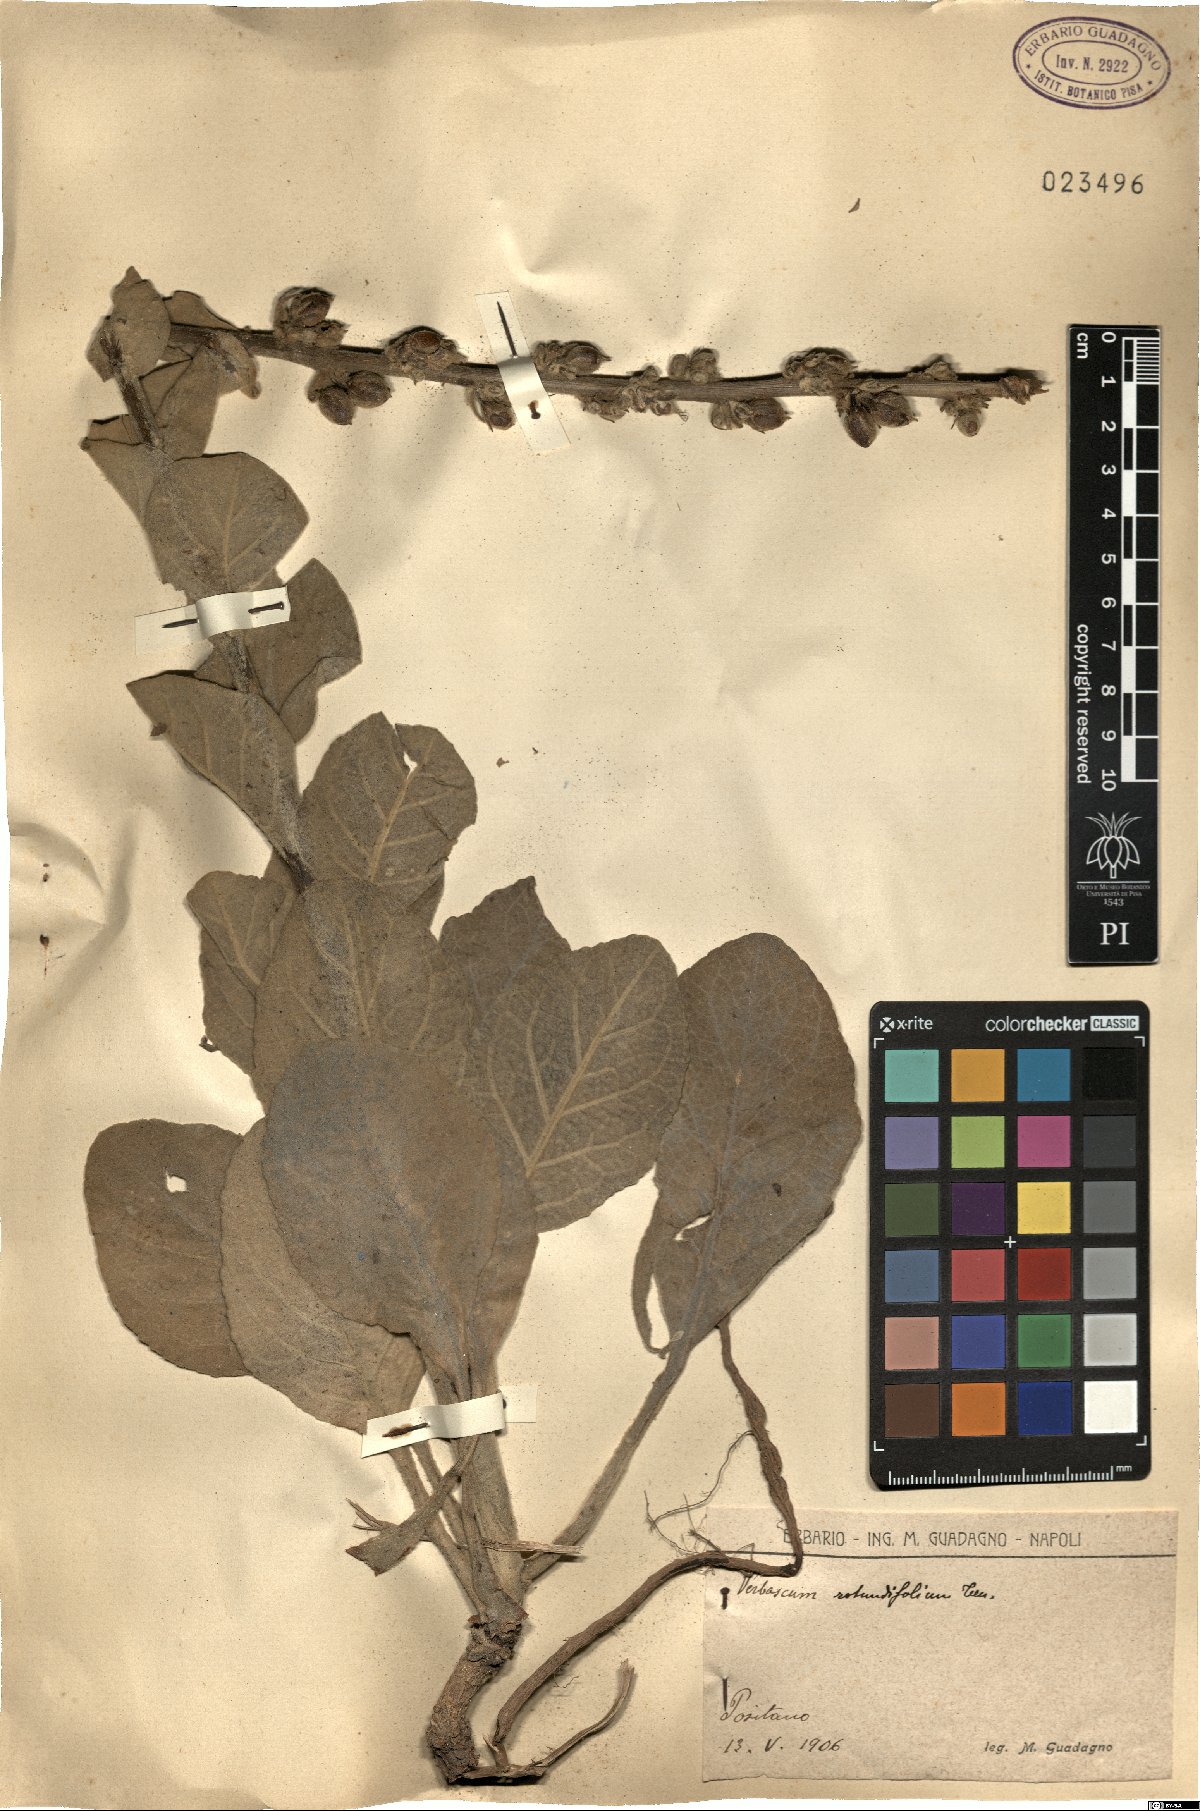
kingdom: Plantae
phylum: Tracheophyta
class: Magnoliopsida
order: Lamiales
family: Scrophulariaceae
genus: Verbascum
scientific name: Verbascum rotundifolium
